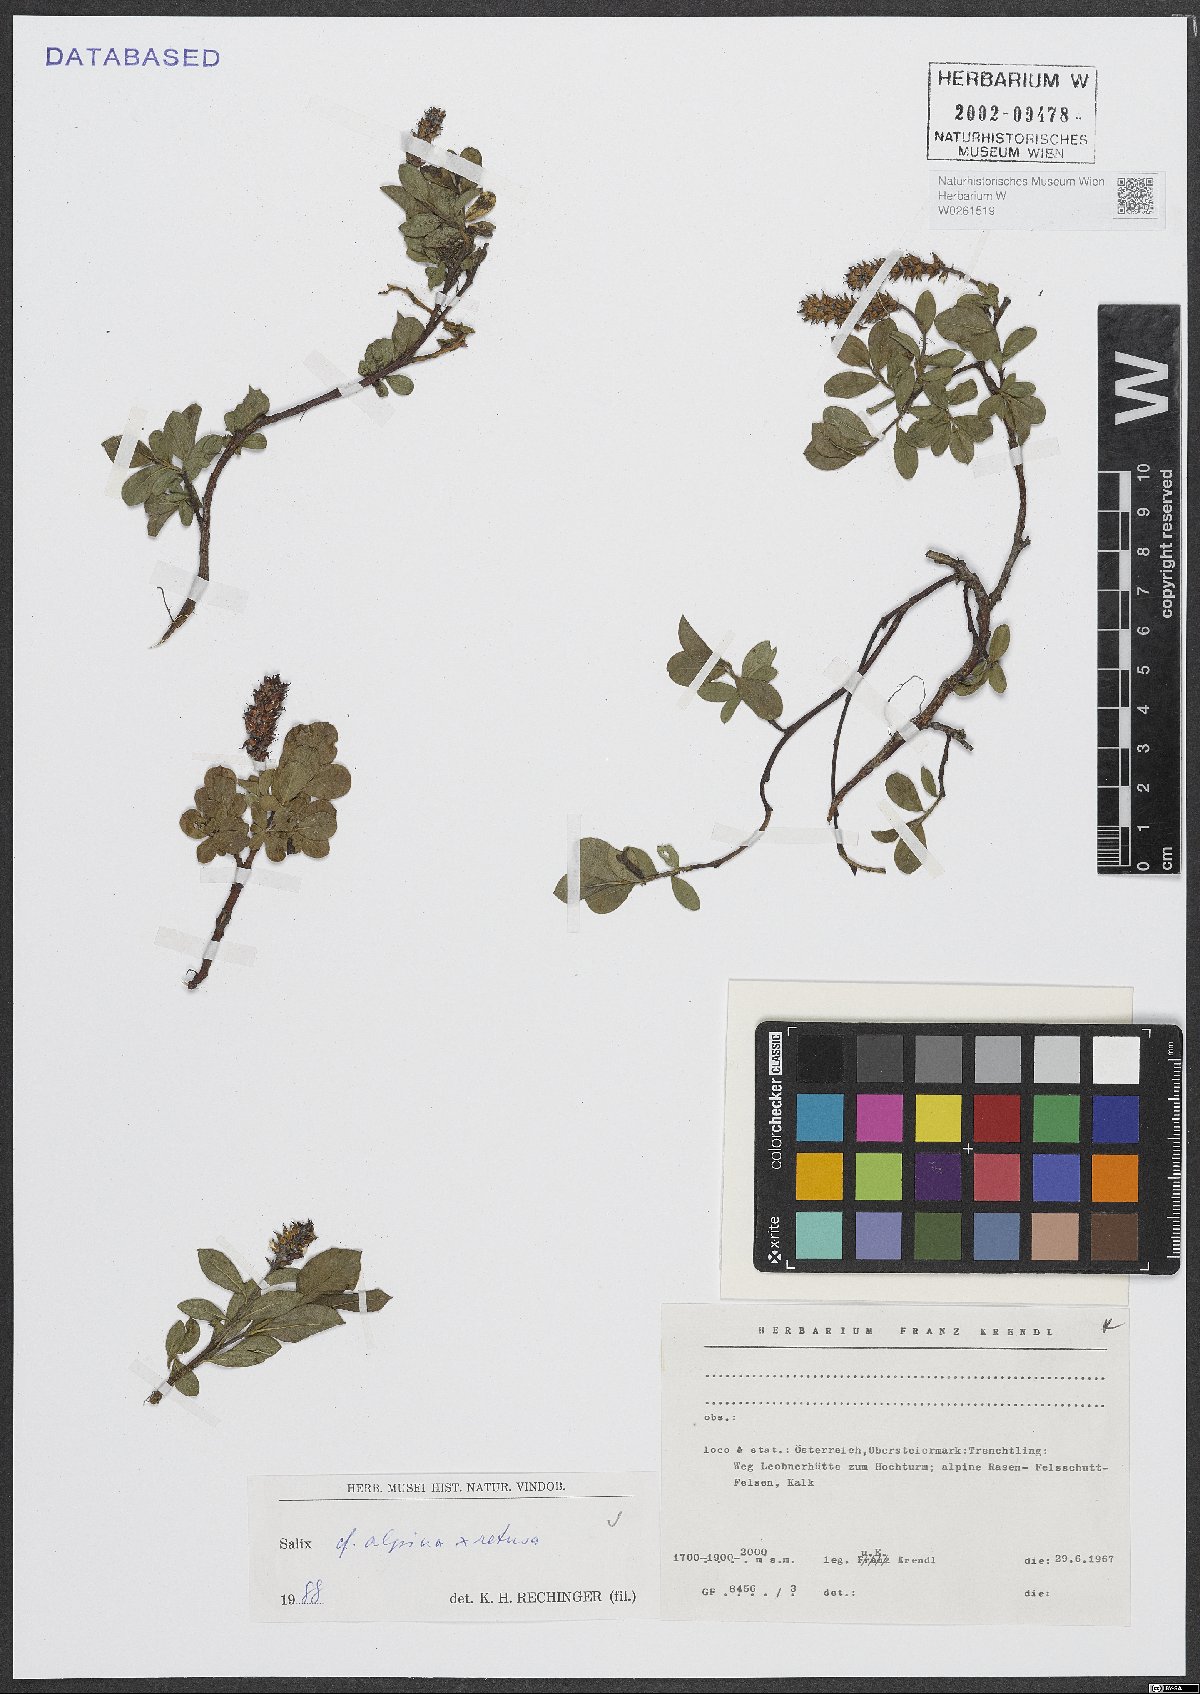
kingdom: Plantae
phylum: Tracheophyta
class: Magnoliopsida
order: Malpighiales
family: Salicaceae
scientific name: Salicaceae
